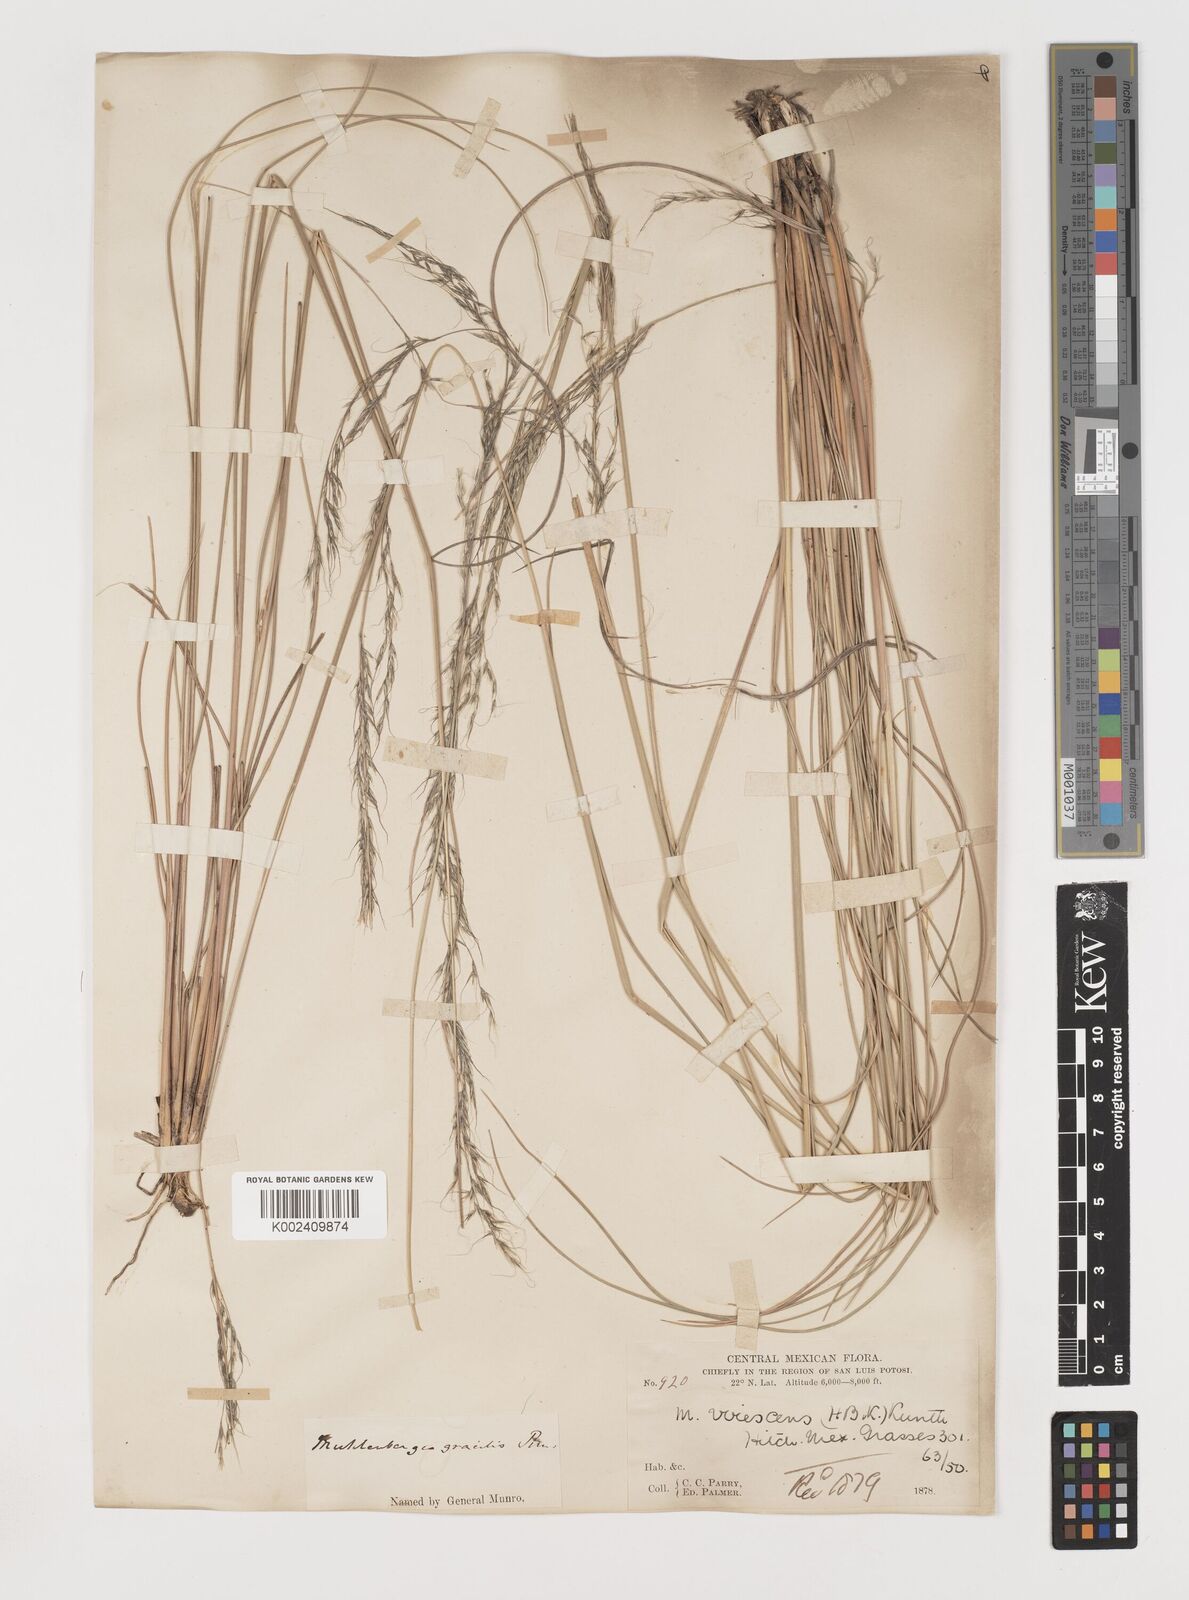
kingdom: Plantae
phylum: Tracheophyta
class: Liliopsida
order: Poales
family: Poaceae
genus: Muhlenbergia
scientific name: Muhlenbergia virescens
